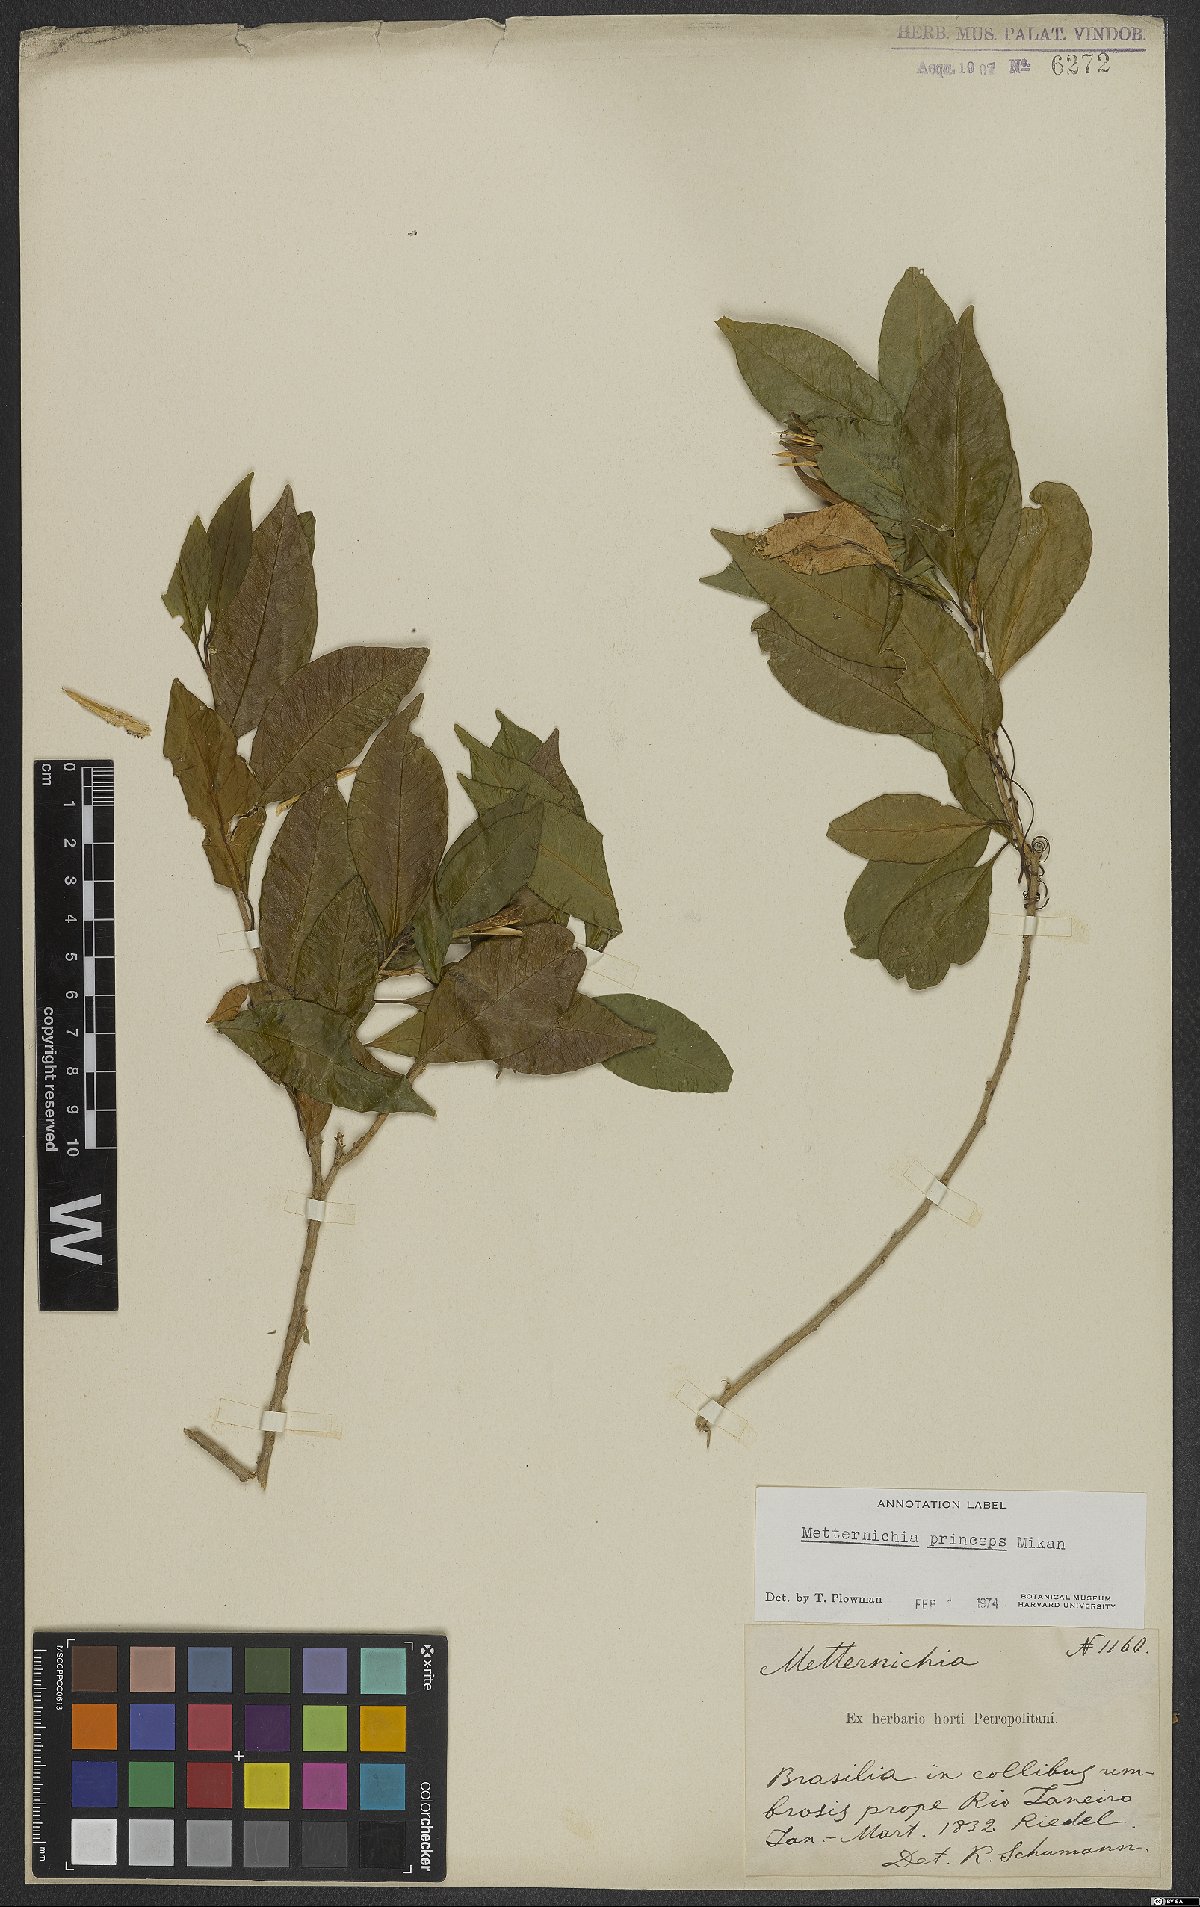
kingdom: Plantae
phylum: Tracheophyta
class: Magnoliopsida
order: Solanales
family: Solanaceae
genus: Metternichia
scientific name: Metternichia principis
